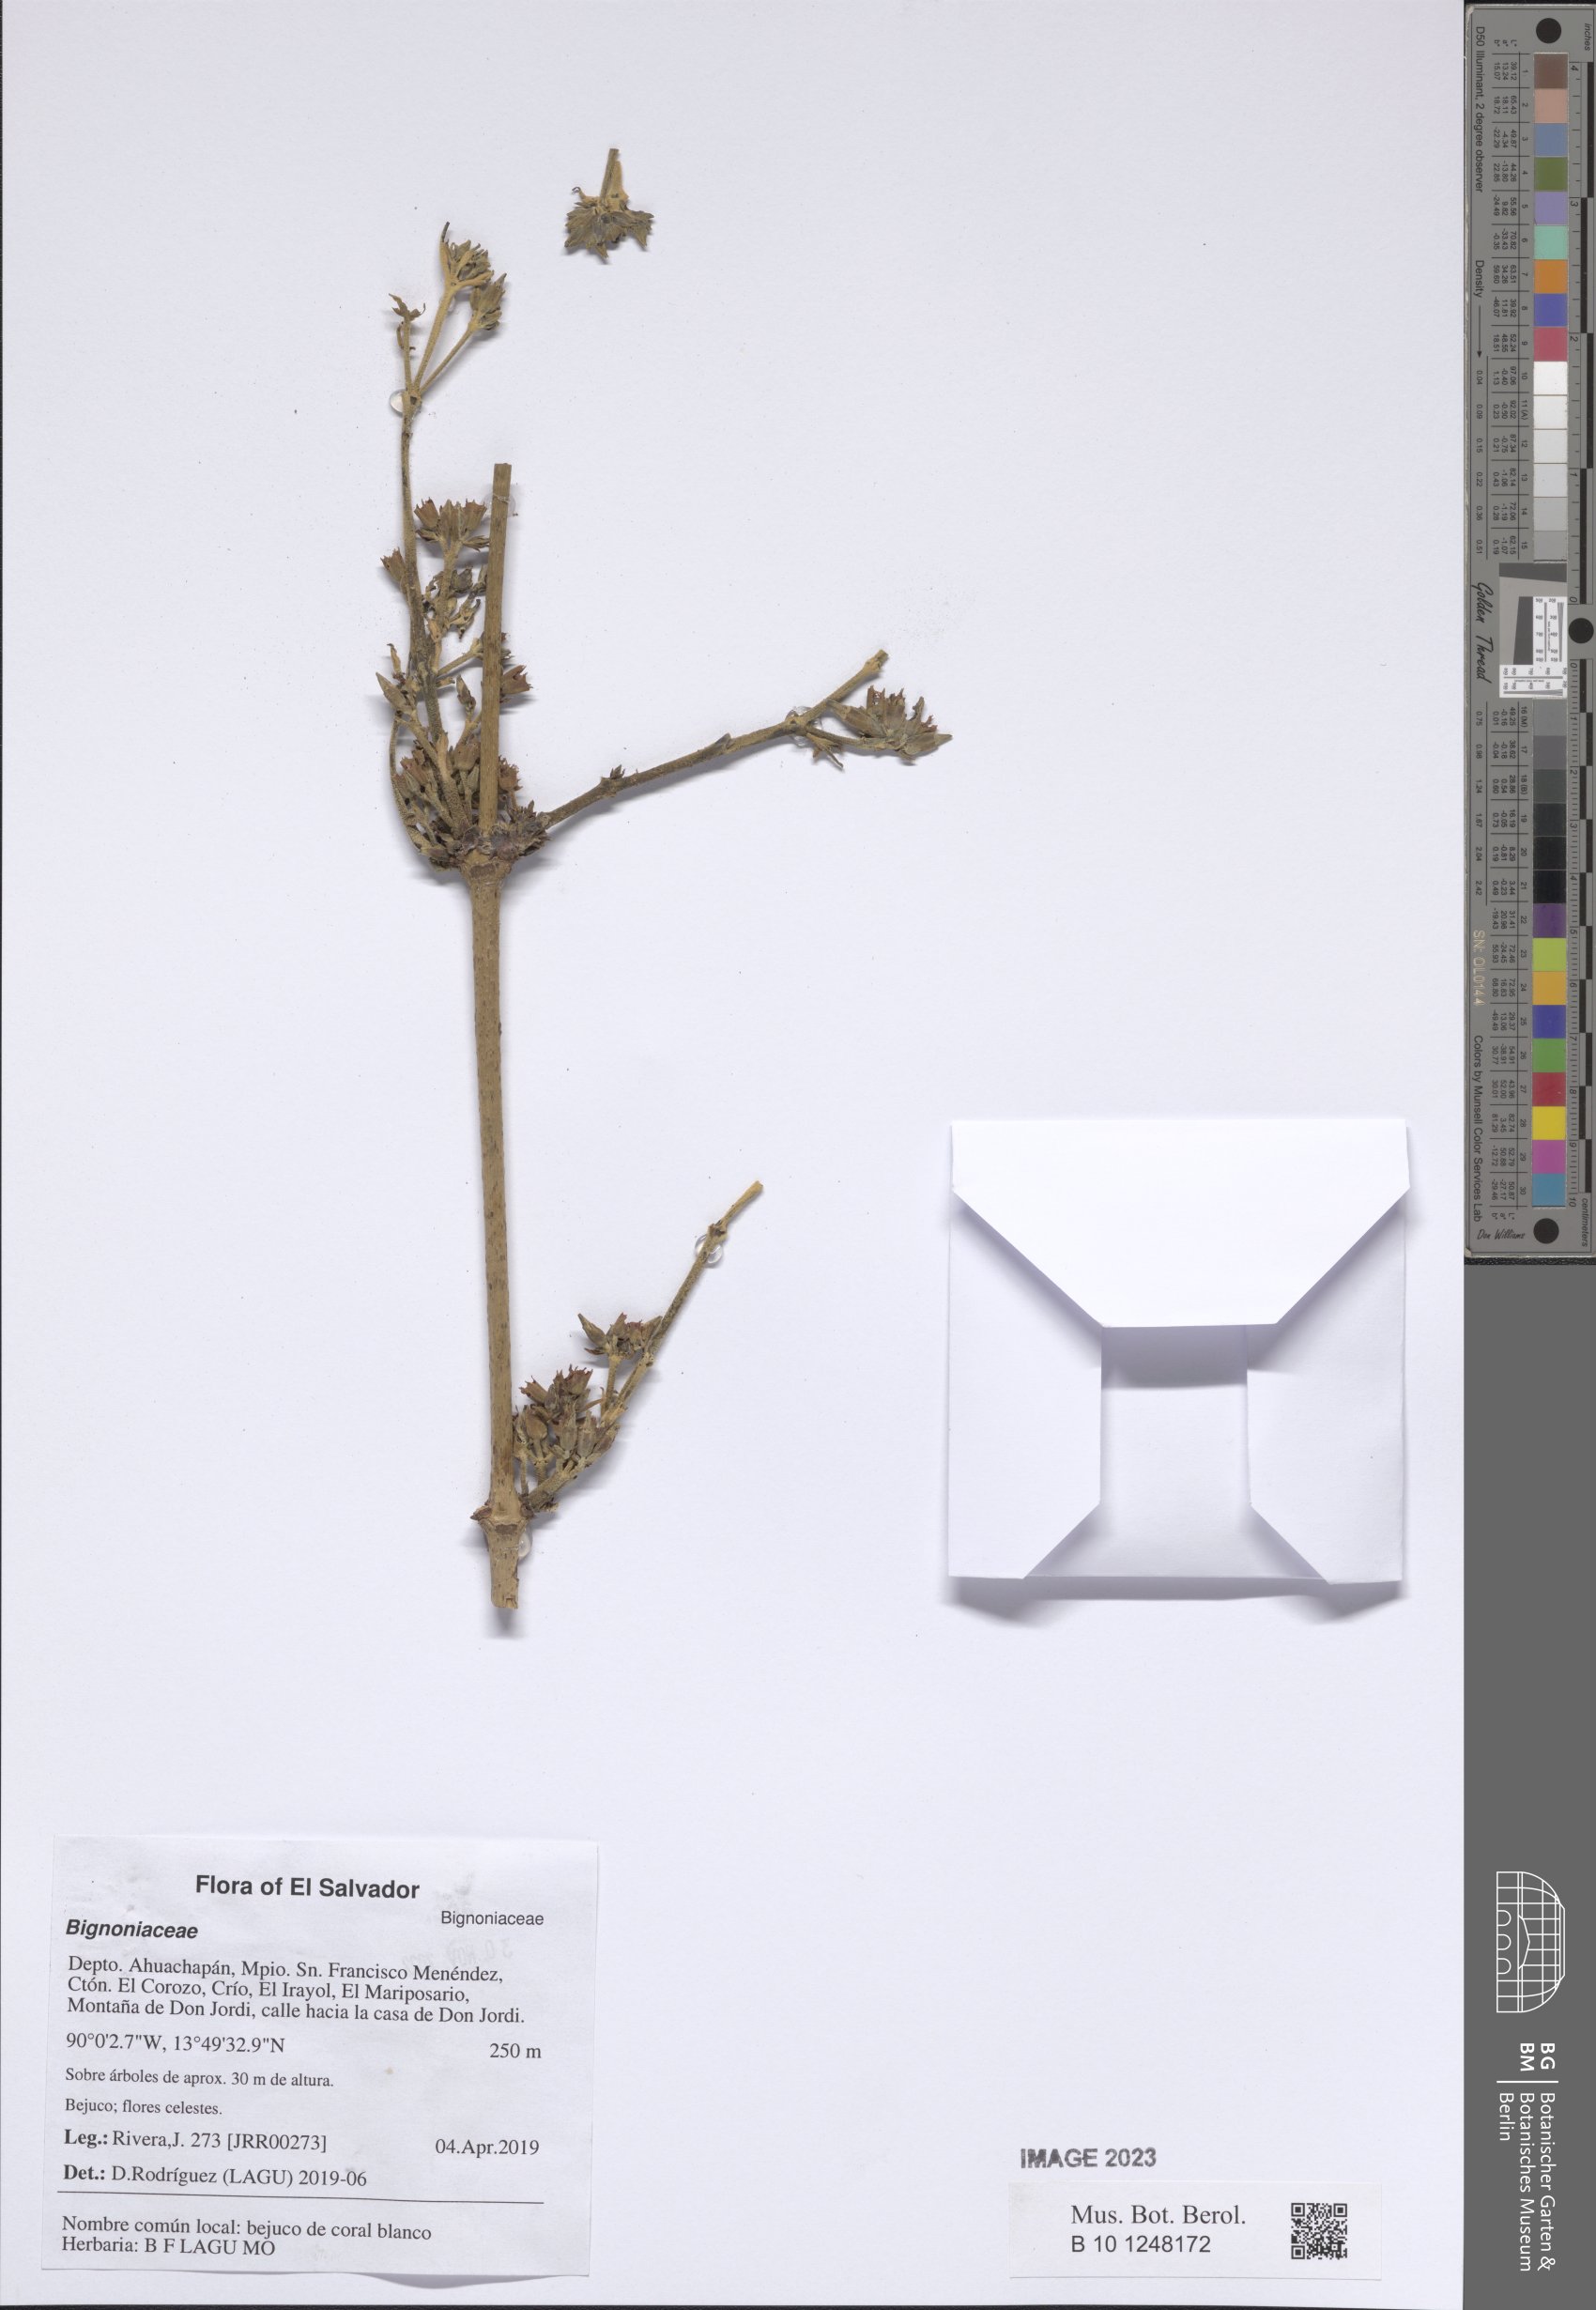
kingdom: Plantae
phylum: Tracheophyta
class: Magnoliopsida
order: Lamiales
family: Bignoniaceae
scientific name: Bignoniaceae
